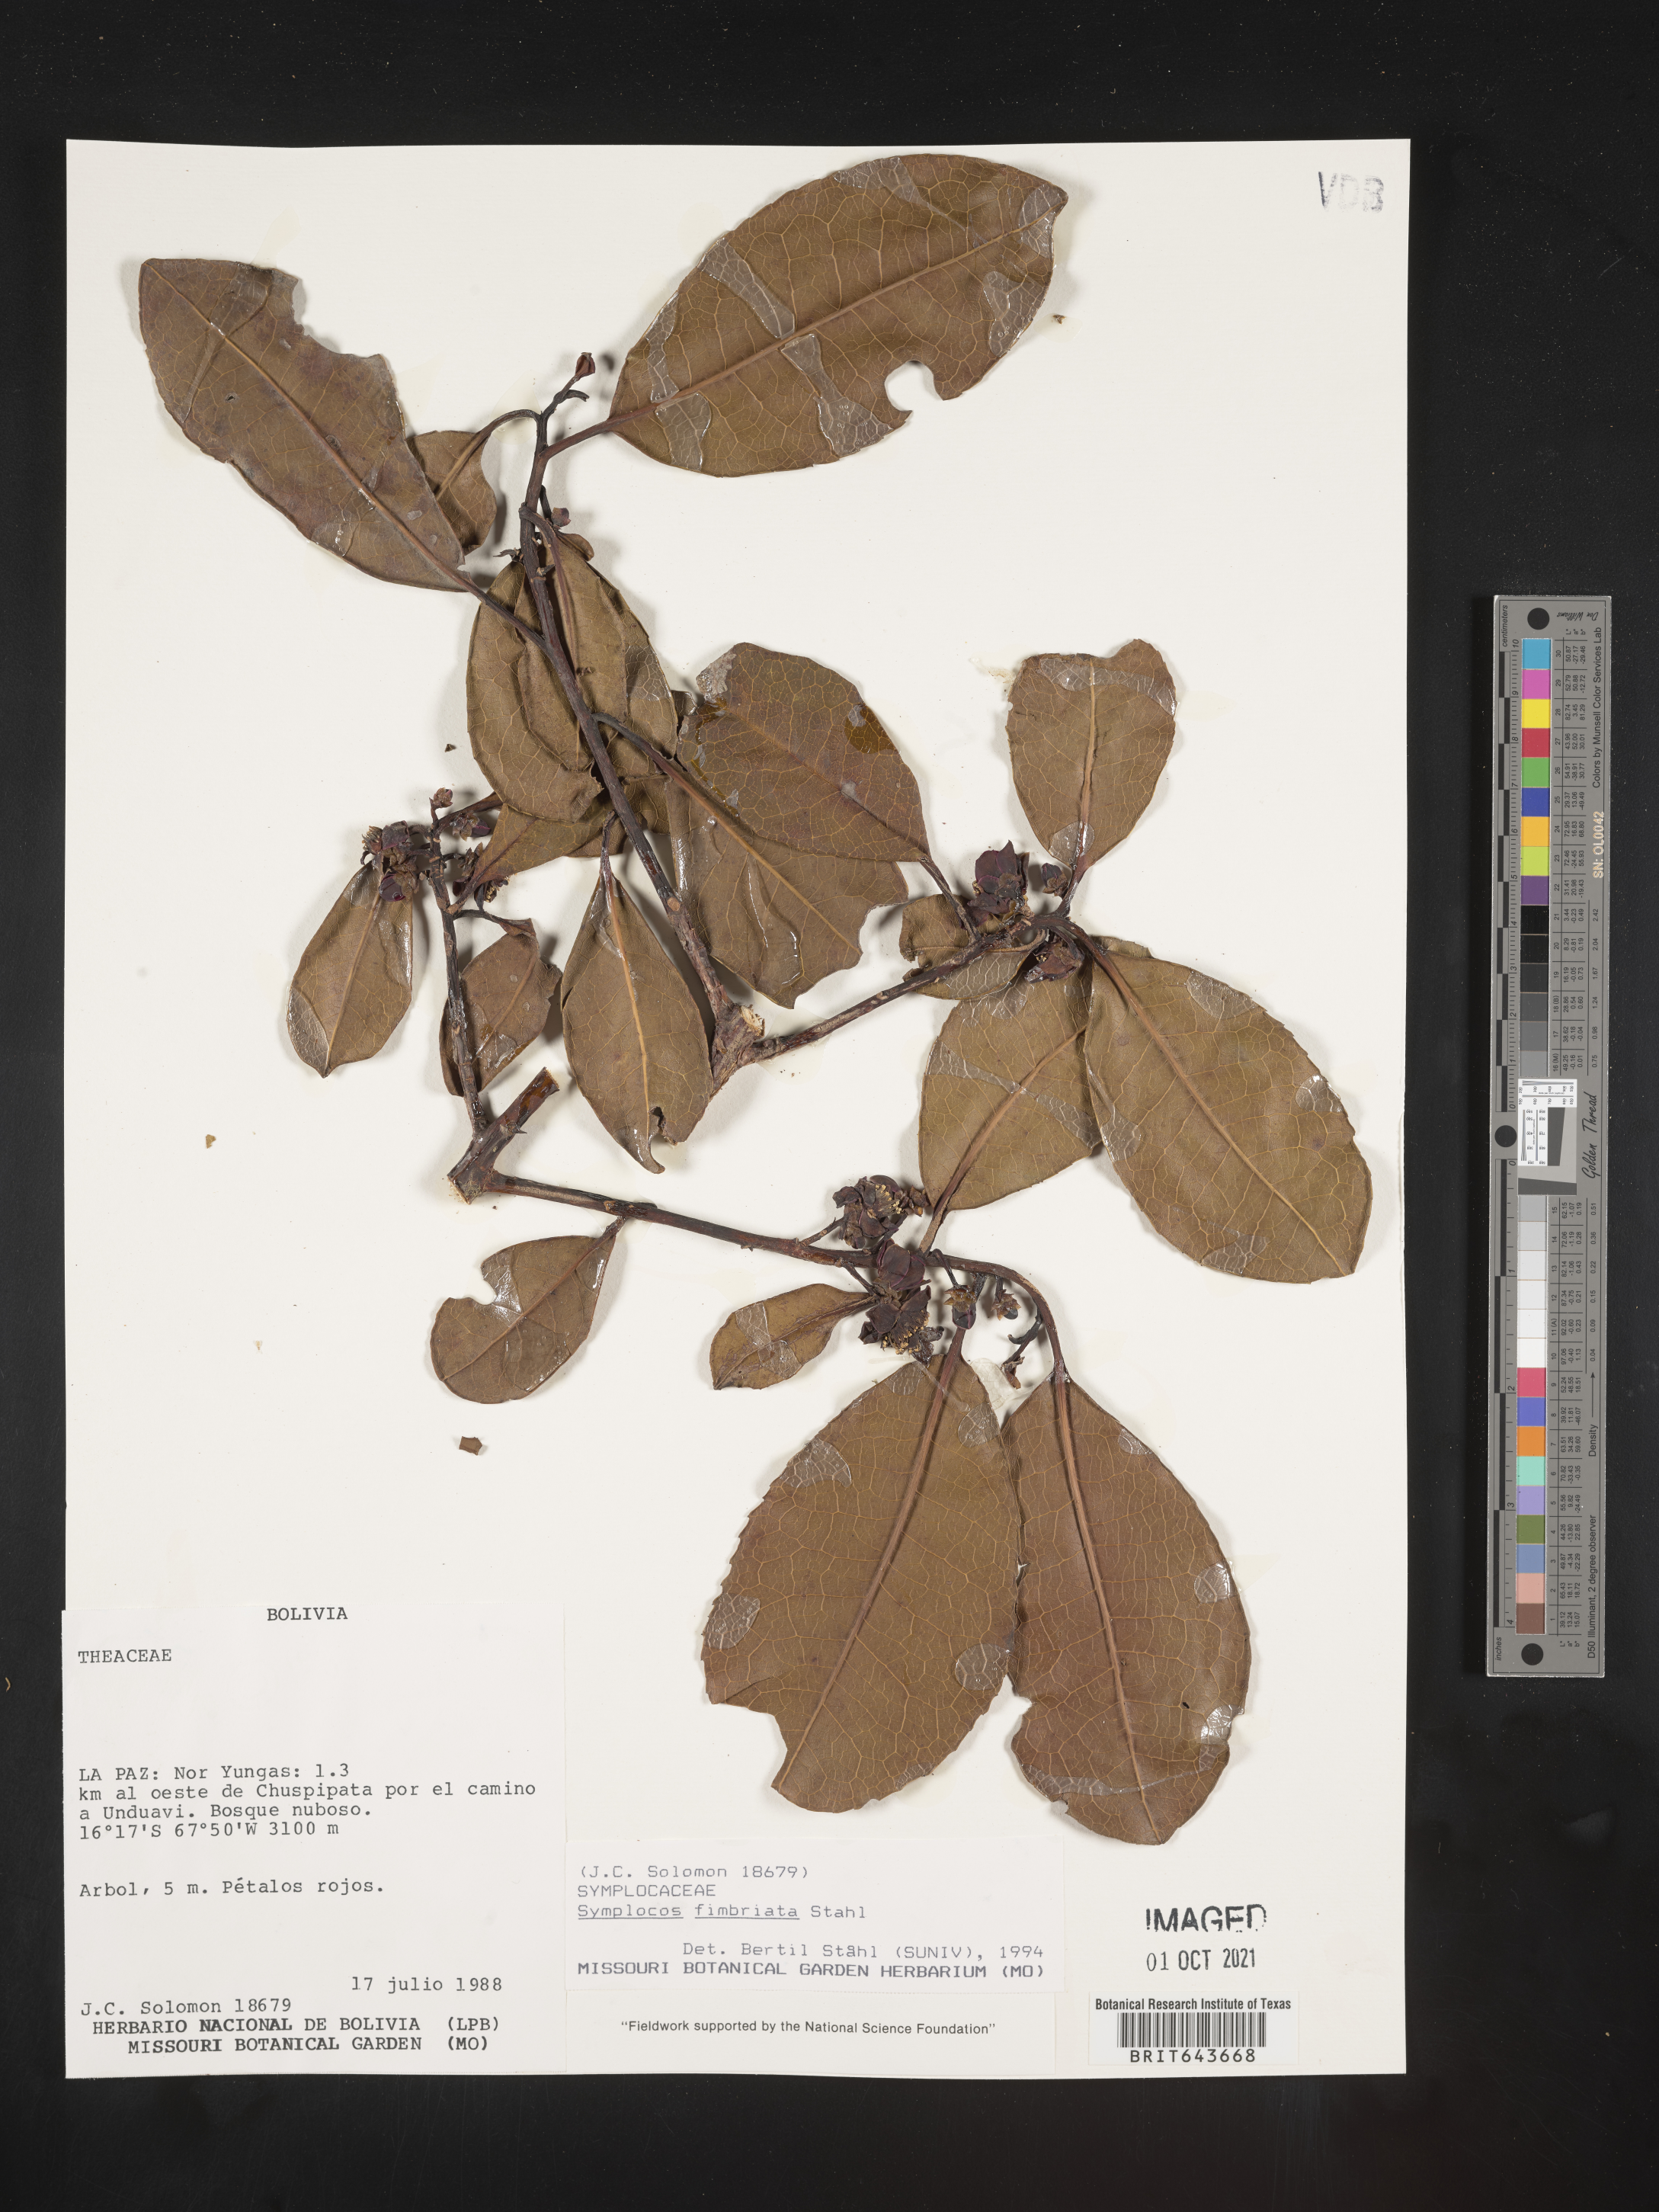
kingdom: Plantae
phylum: Tracheophyta
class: Magnoliopsida
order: Ericales
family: Symplocaceae
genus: Symplocos
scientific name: Symplocos
